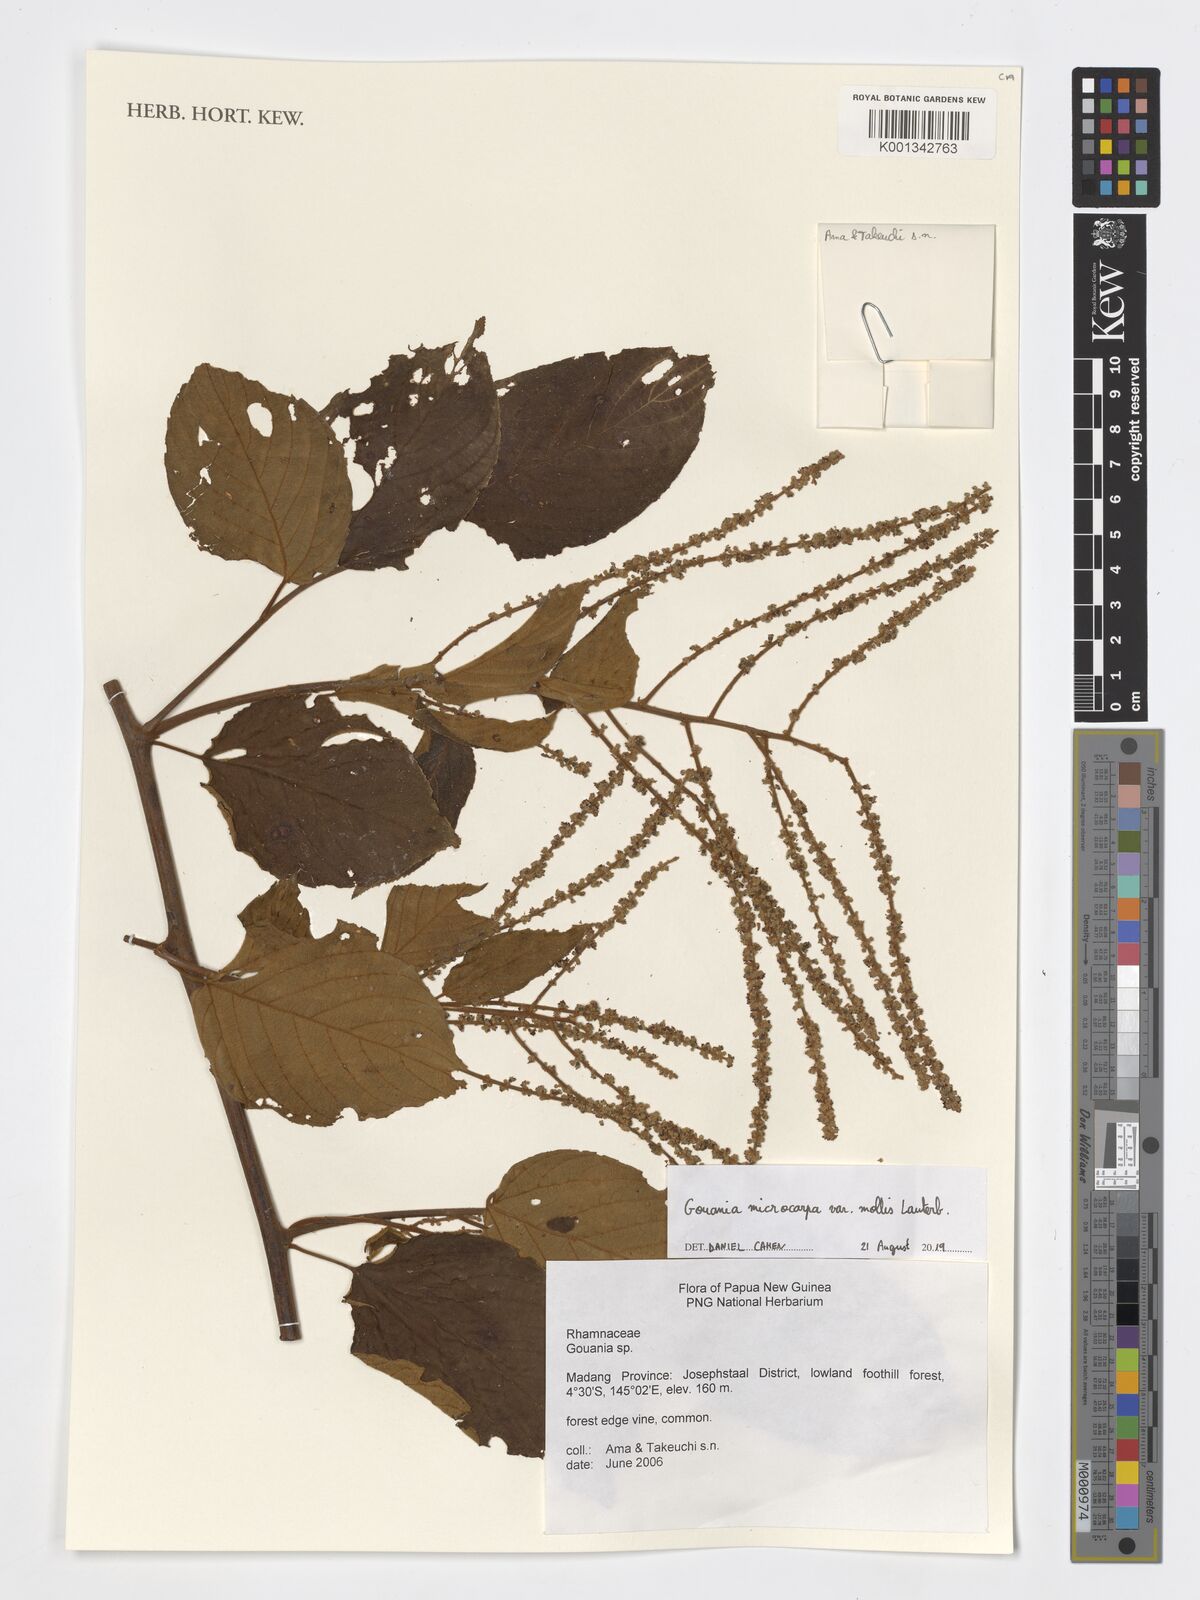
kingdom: Plantae
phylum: Tracheophyta
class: Magnoliopsida
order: Rosales
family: Rhamnaceae
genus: Gouania
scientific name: Gouania microcarpa
